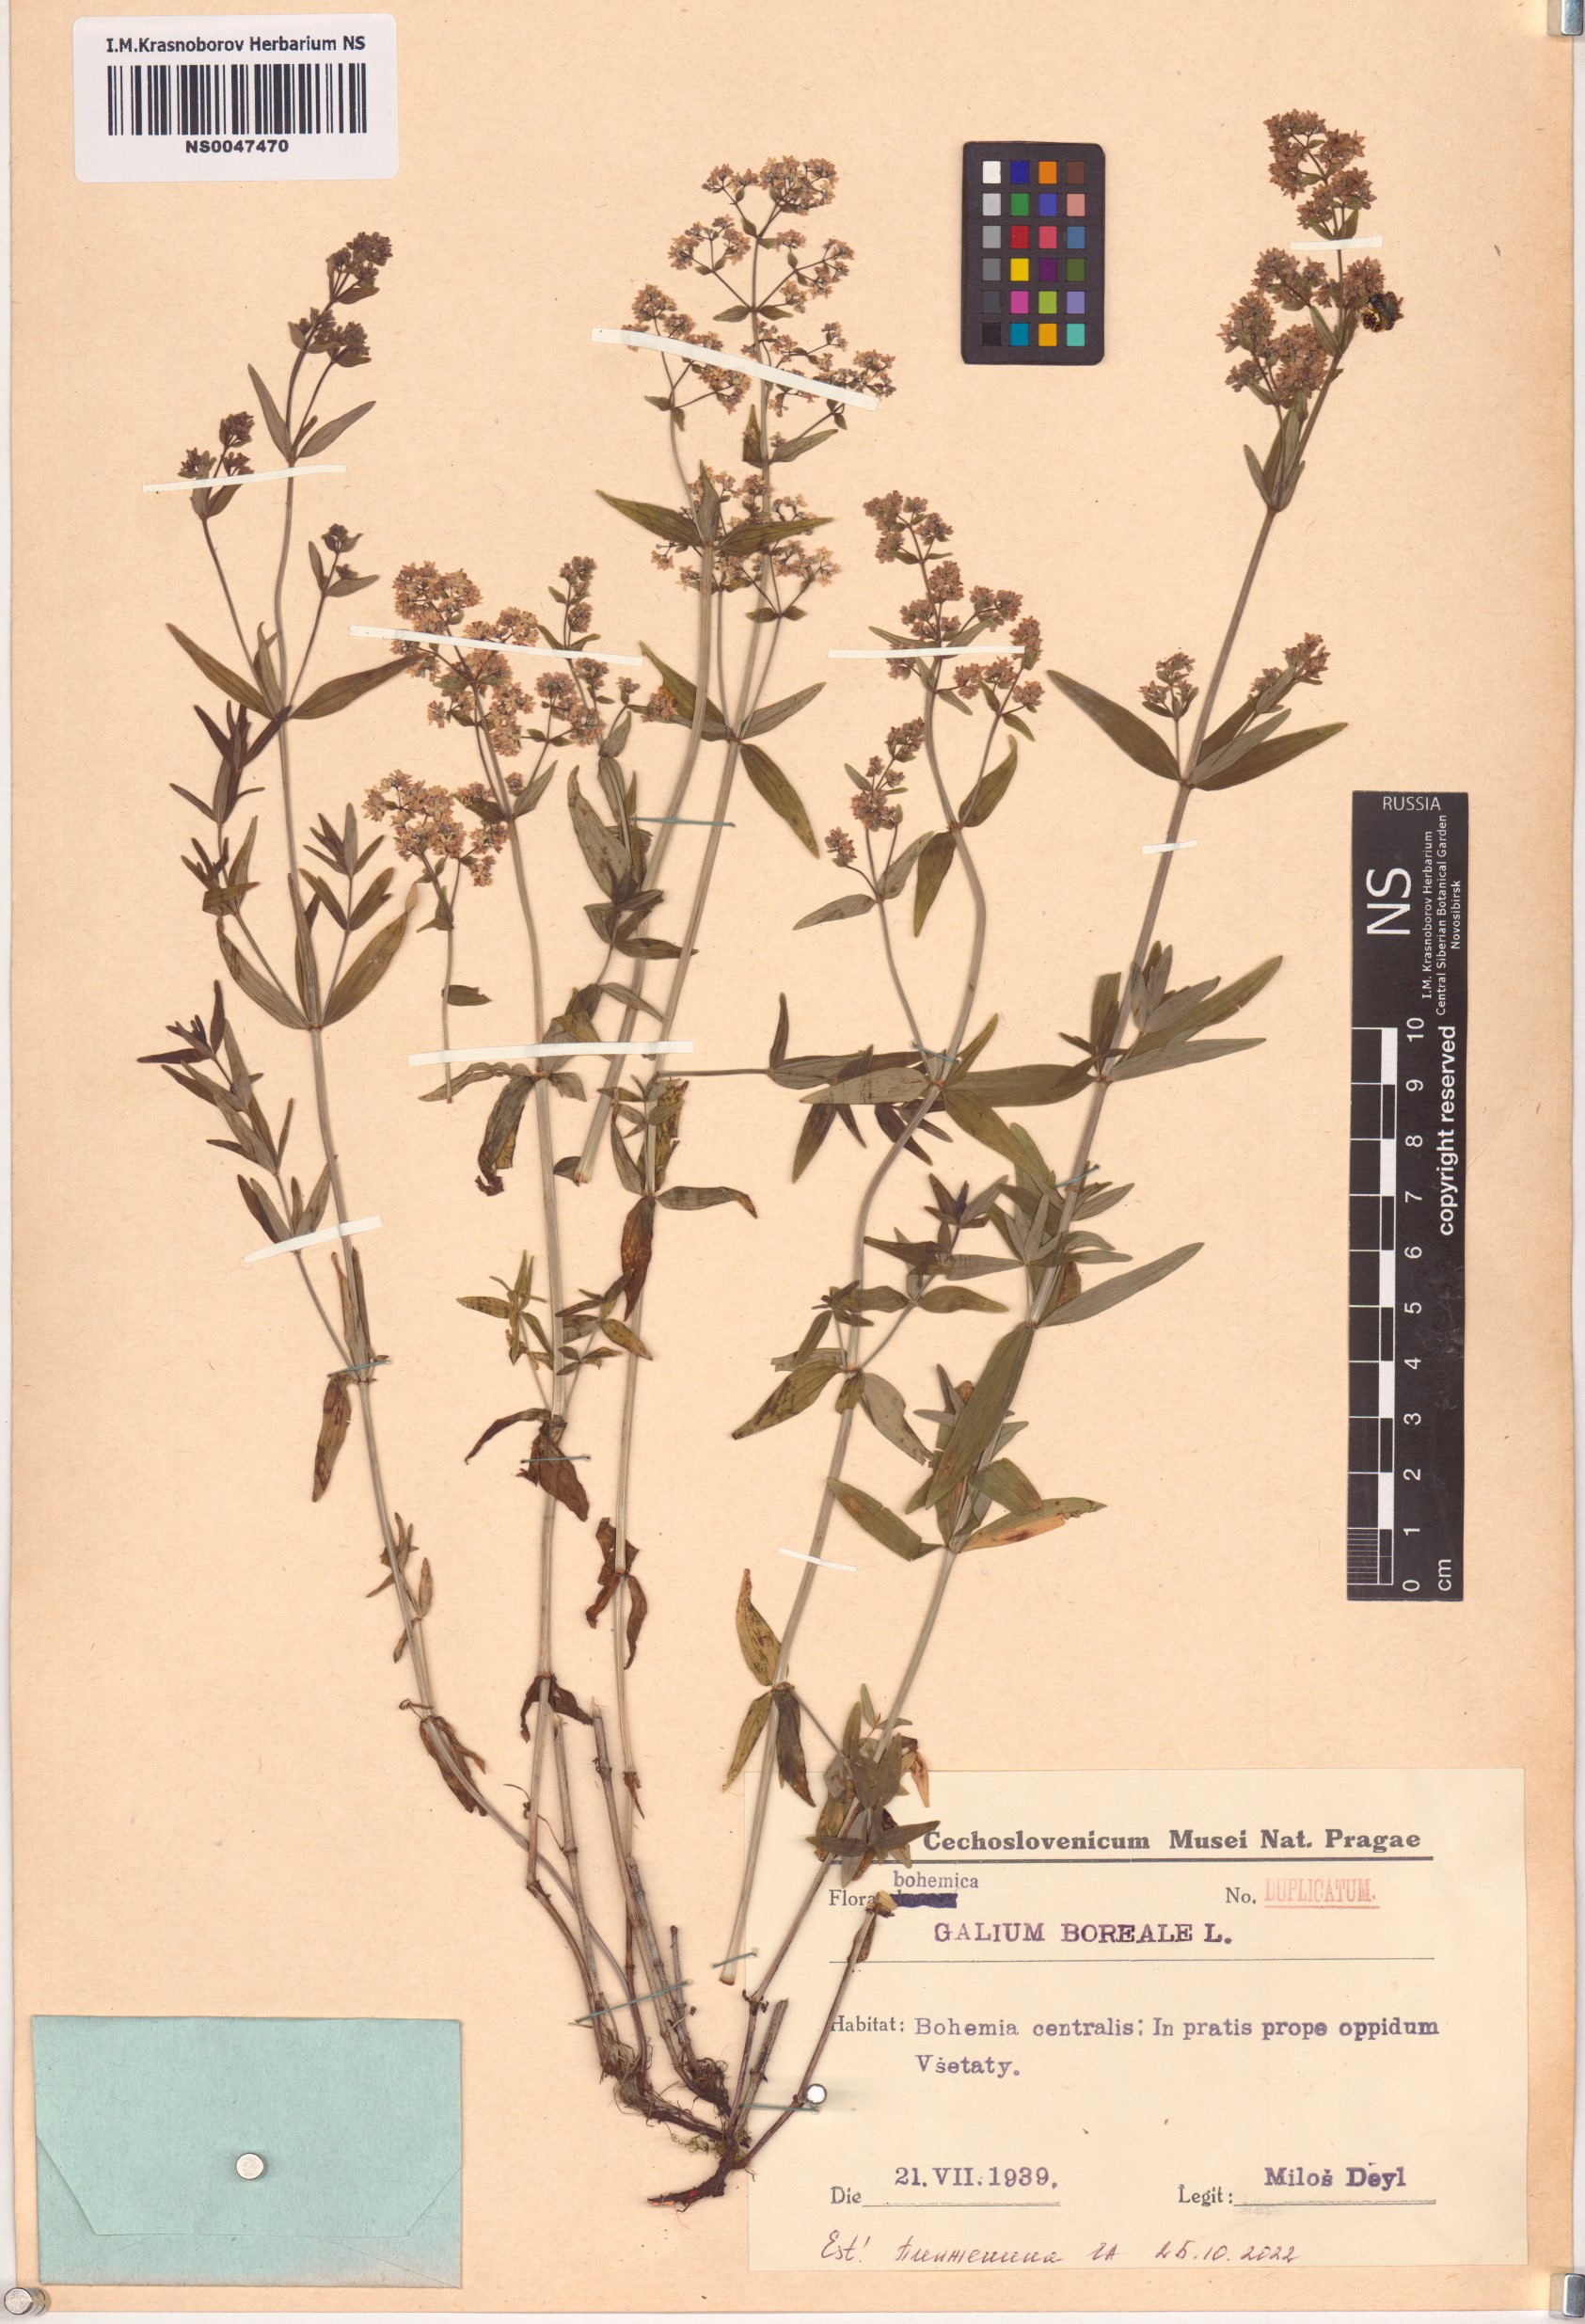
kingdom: Plantae
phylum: Tracheophyta
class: Magnoliopsida
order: Gentianales
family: Rubiaceae
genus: Galium
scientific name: Galium boreale
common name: Northern bedstraw
